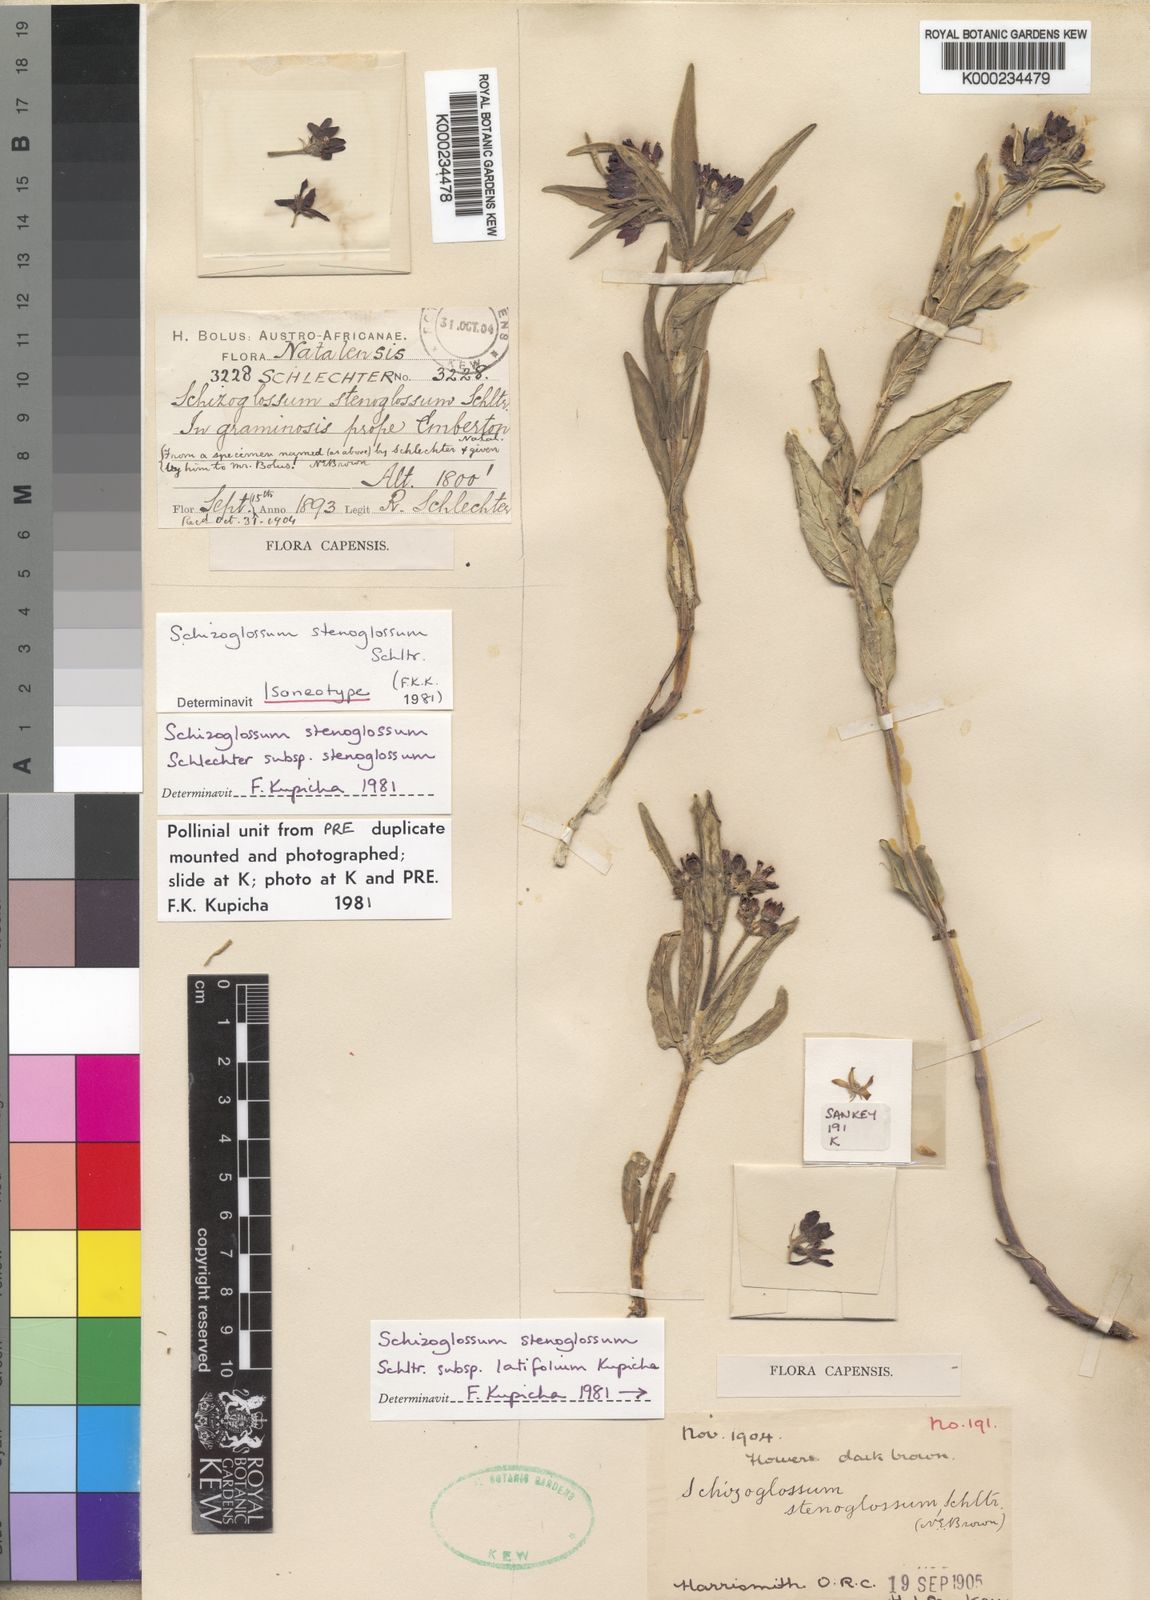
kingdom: Plantae
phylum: Tracheophyta
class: Magnoliopsida
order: Gentianales
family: Apocynaceae
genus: Schizoglossum
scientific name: Schizoglossum stenoglossum
